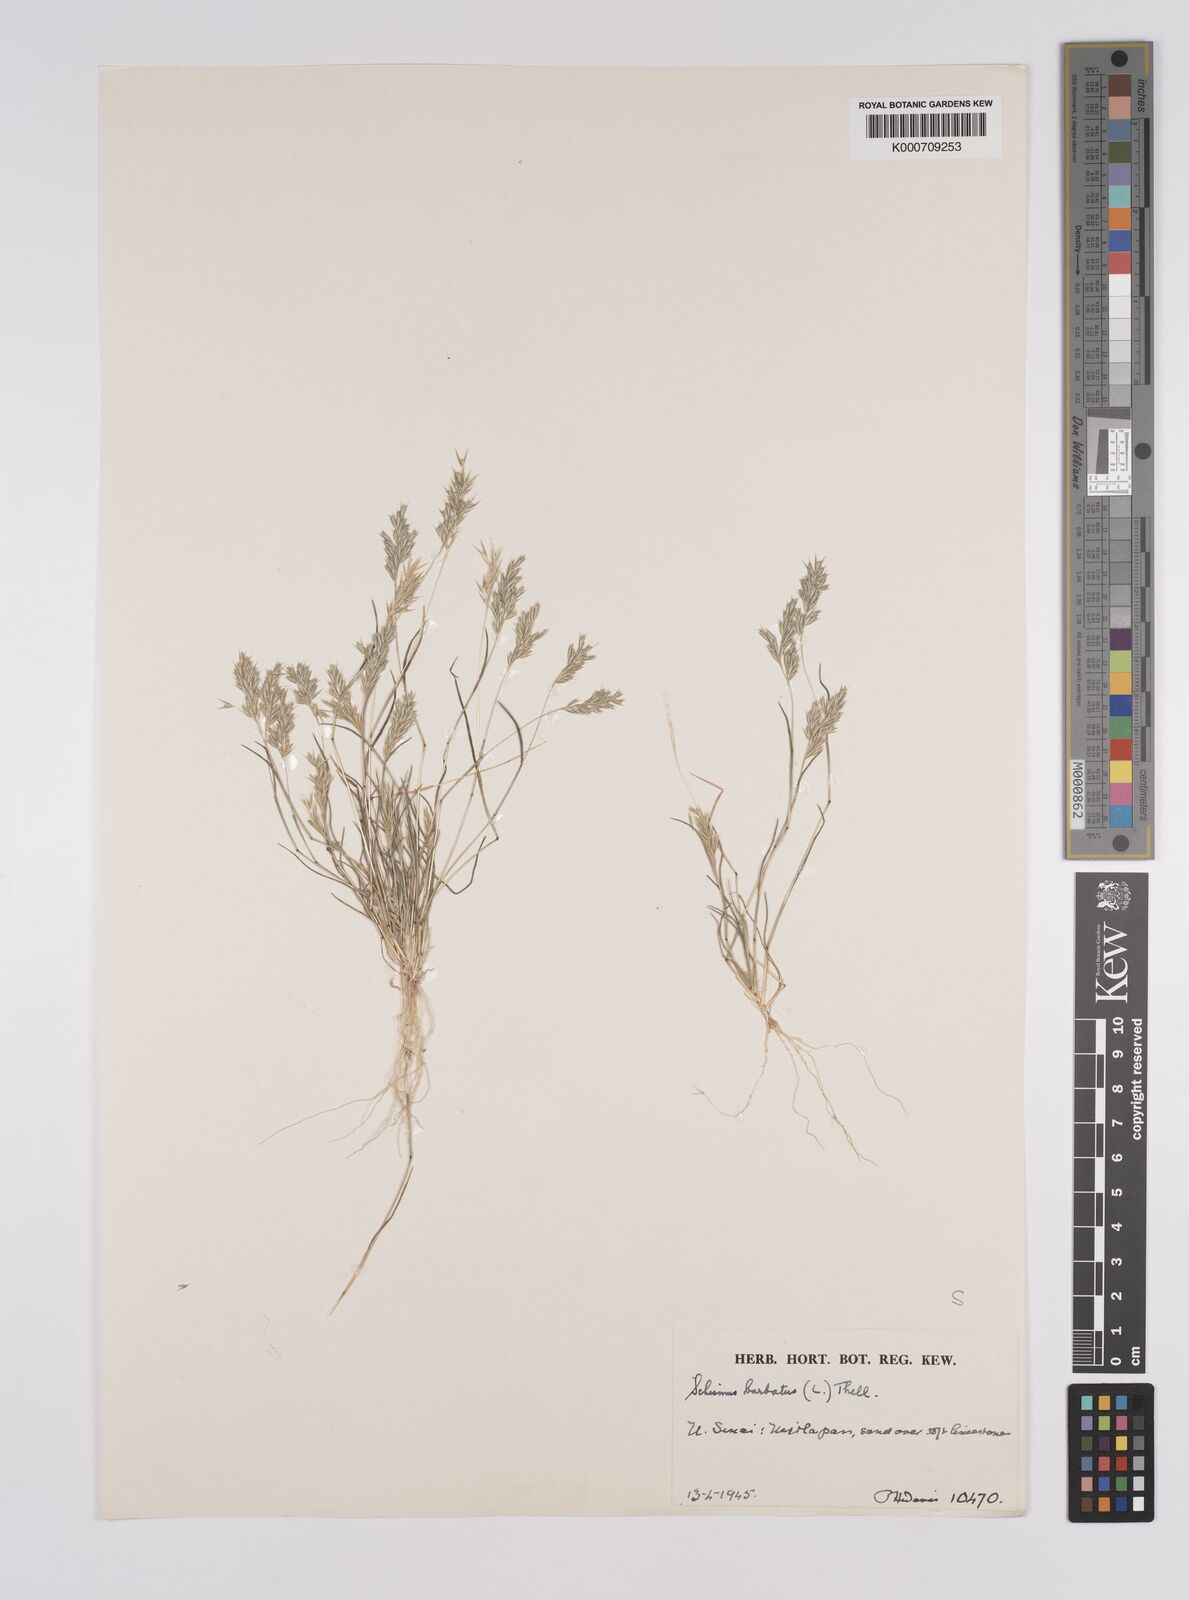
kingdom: Plantae
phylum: Tracheophyta
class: Liliopsida
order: Poales
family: Poaceae
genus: Schismus
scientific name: Schismus barbatus
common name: Kelch-grass
